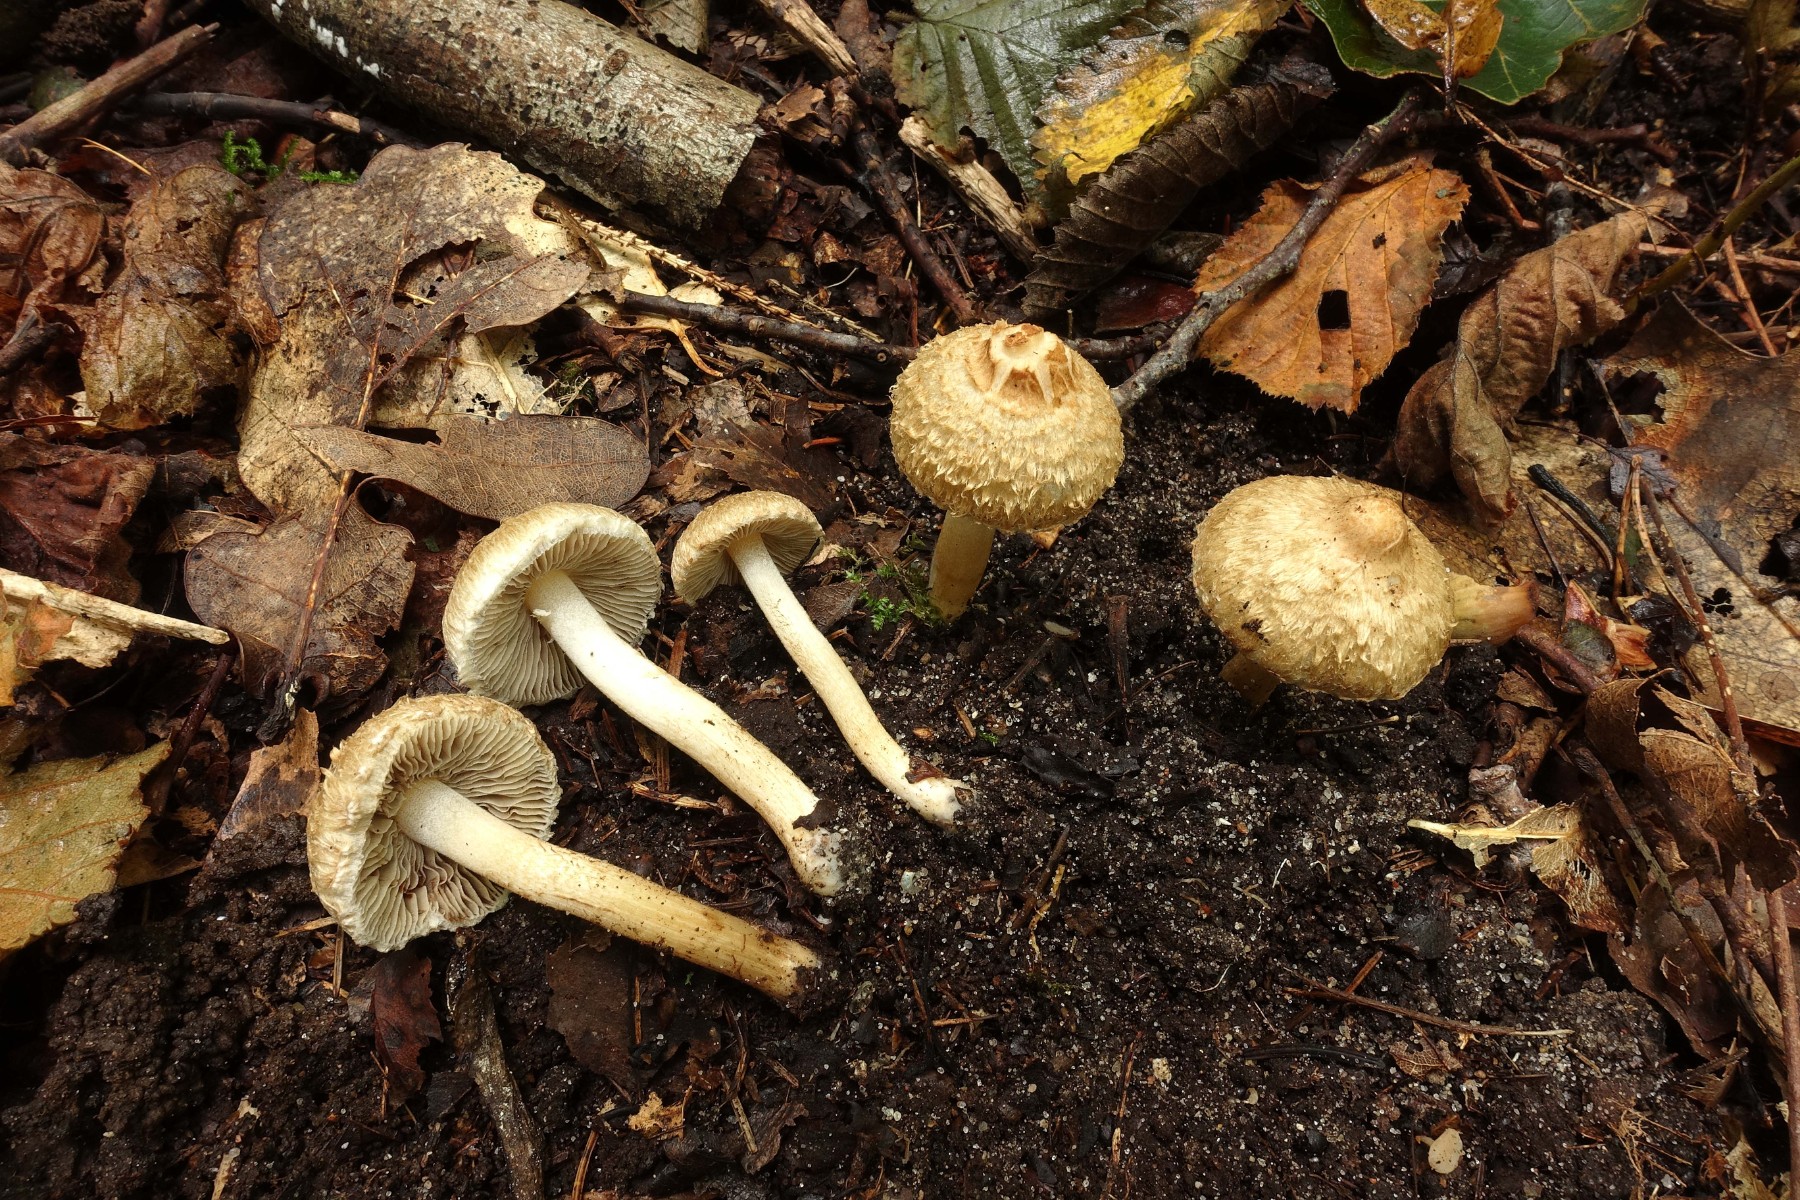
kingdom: Fungi
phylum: Basidiomycota
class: Agaricomycetes
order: Agaricales
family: Inocybaceae
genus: Inocybe
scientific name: Inocybe appendiculata
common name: tandet trævlhat
